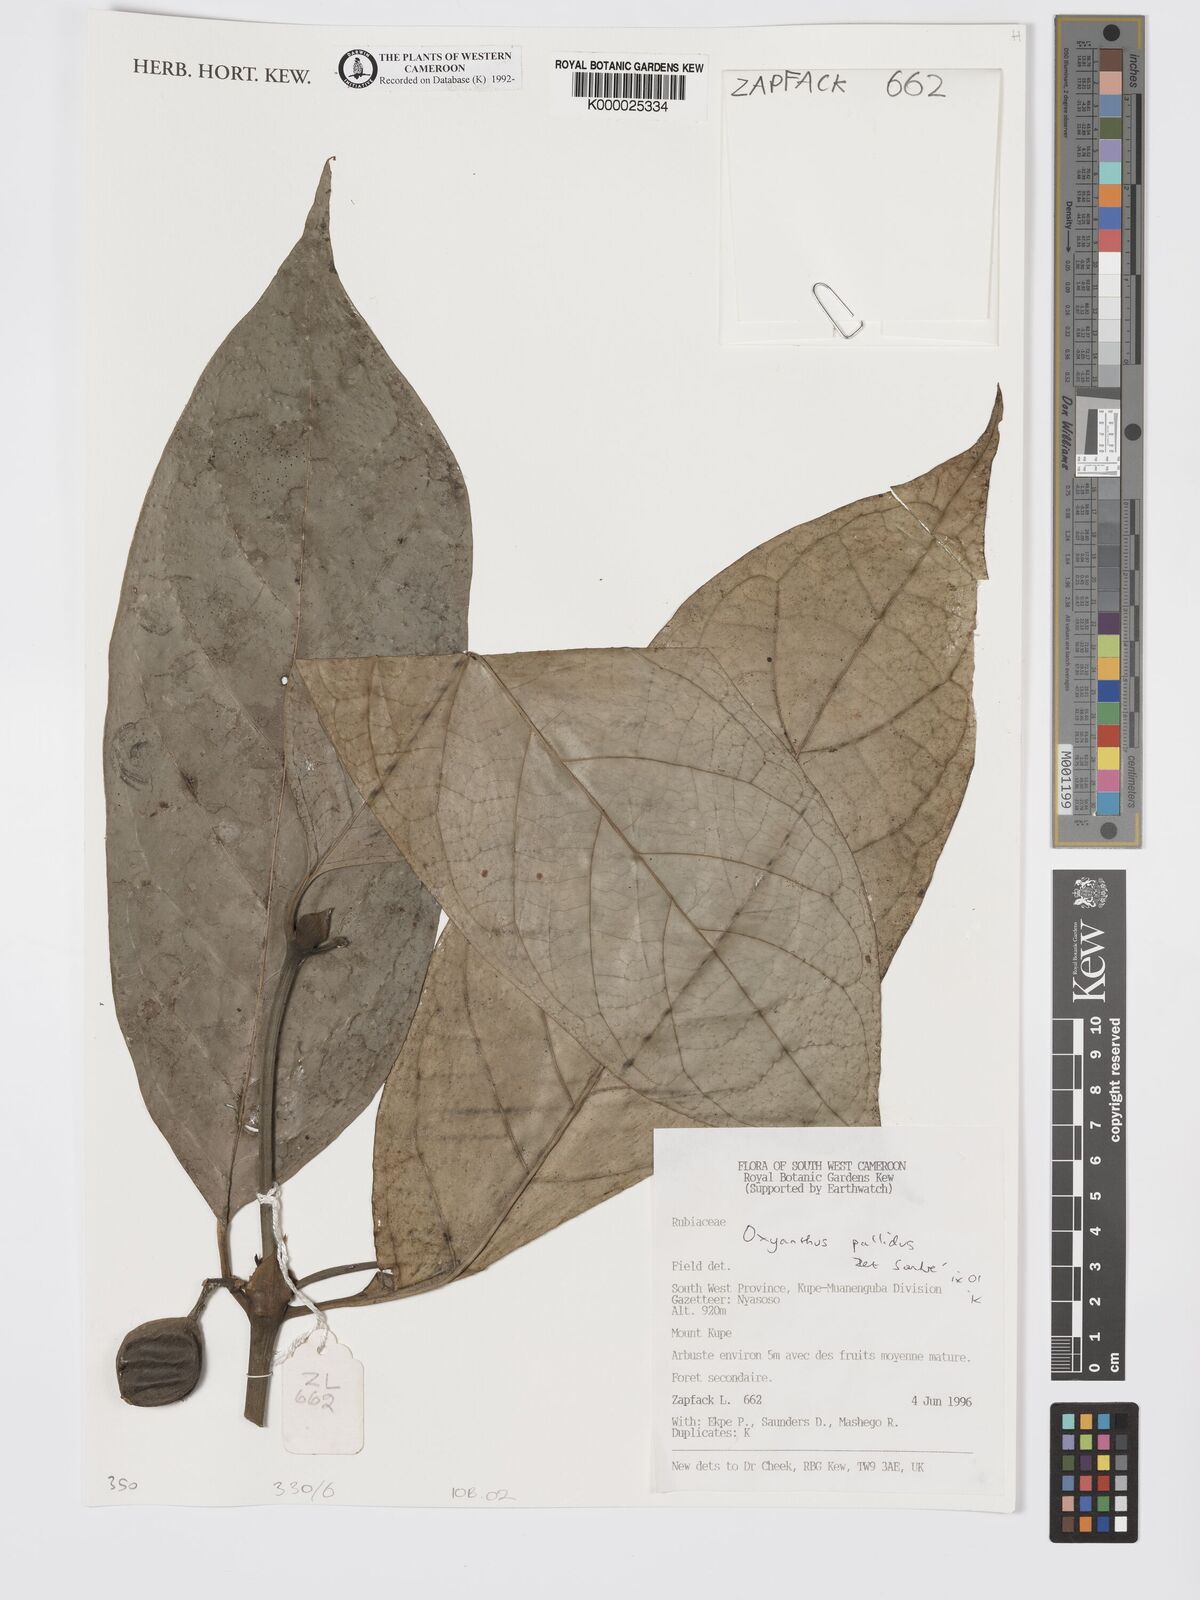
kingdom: Plantae
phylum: Tracheophyta
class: Magnoliopsida
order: Gentianales
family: Rubiaceae
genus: Oxyanthus
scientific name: Oxyanthus pallidus
